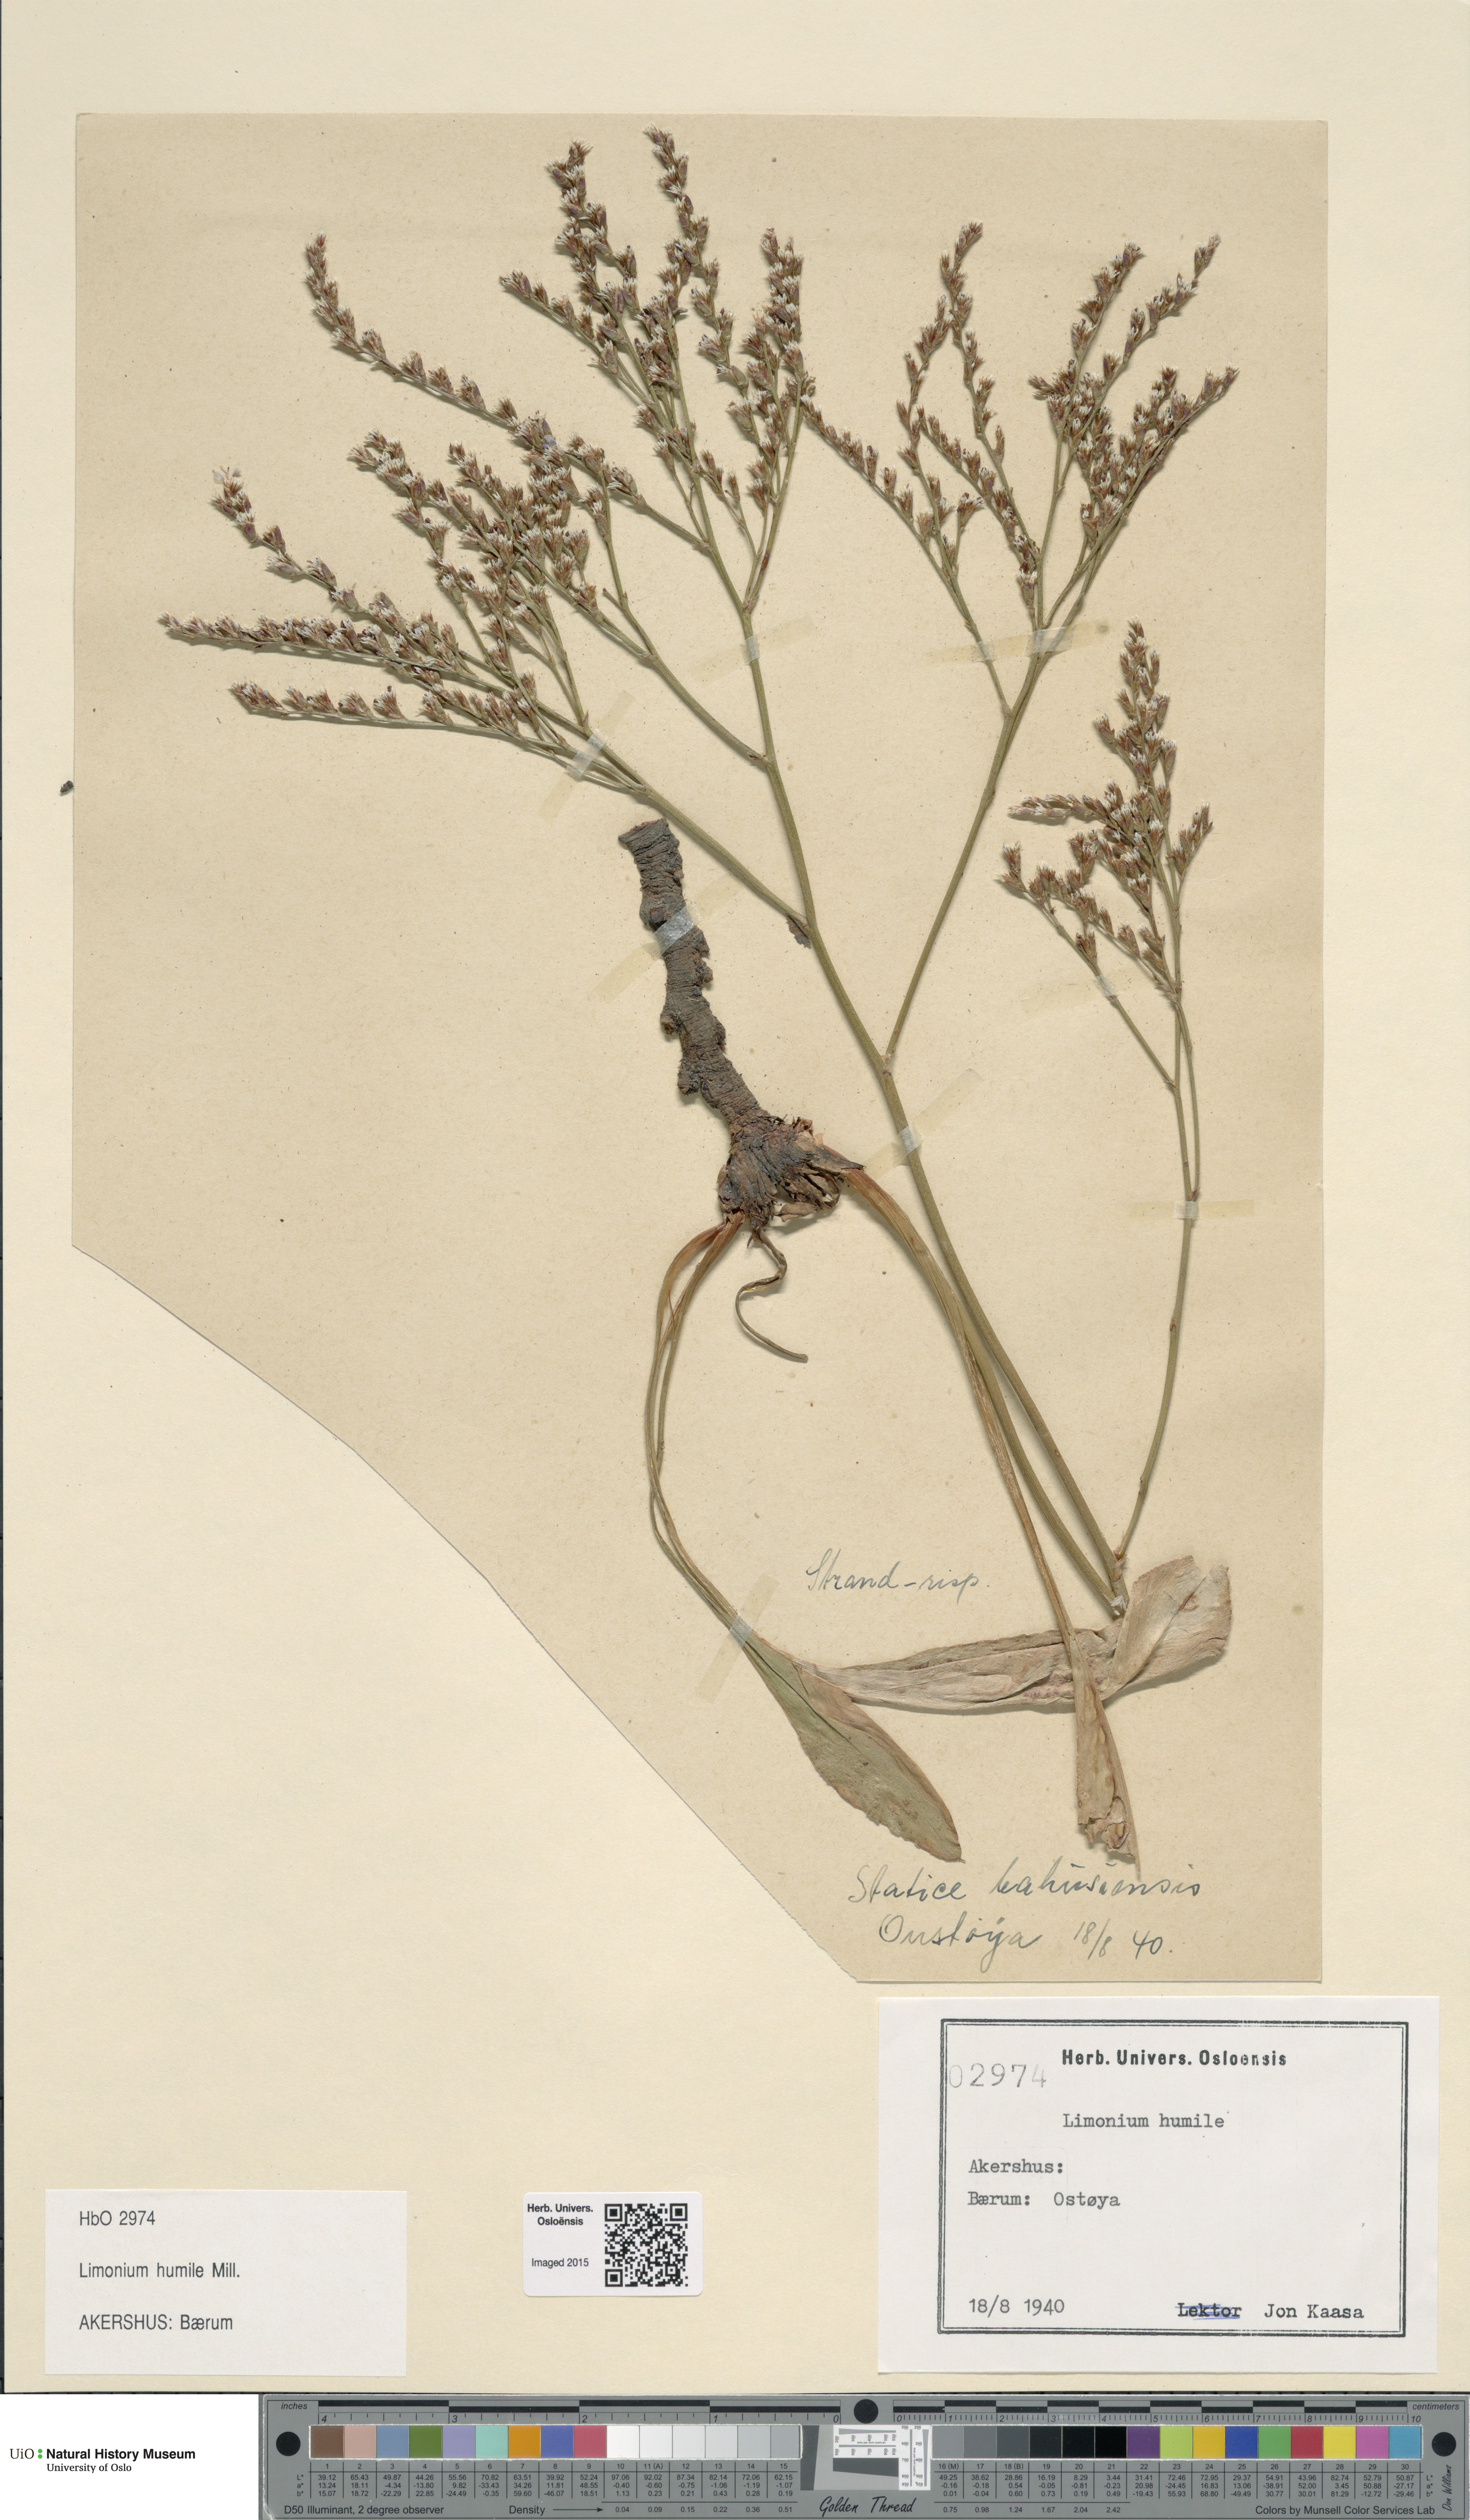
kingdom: Plantae
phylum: Tracheophyta
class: Magnoliopsida
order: Caryophyllales
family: Plumbaginaceae
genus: Limonium
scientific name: Limonium humile
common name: Lax-flowered sea-lavender
